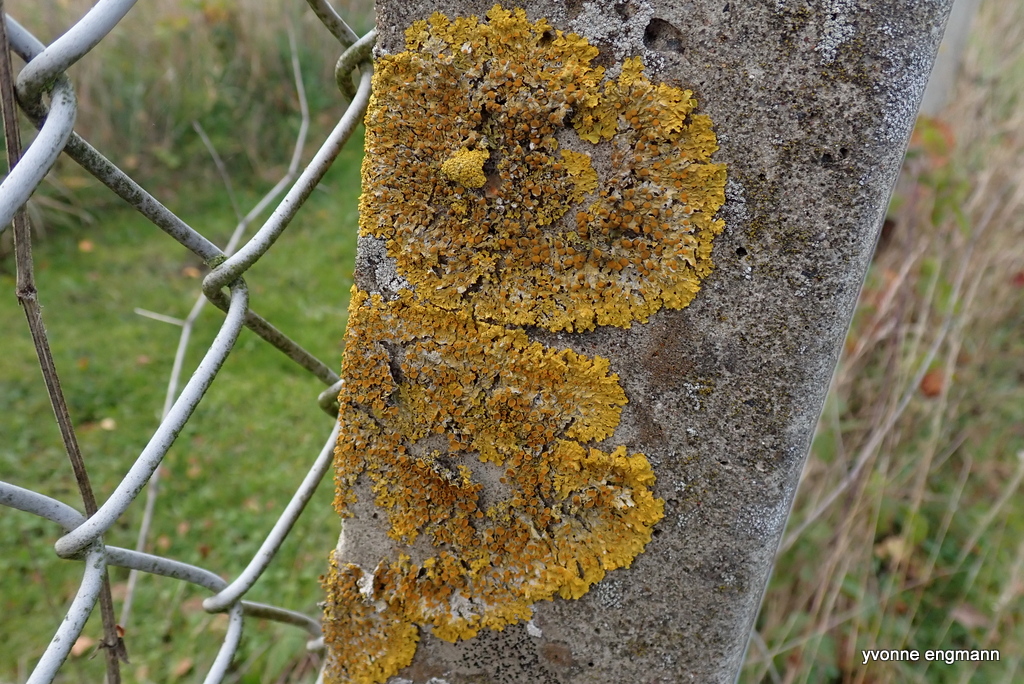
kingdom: Fungi
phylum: Ascomycota
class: Lecanoromycetes
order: Teloschistales
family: Teloschistaceae
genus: Xanthoria
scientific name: Xanthoria parietina
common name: almindelig væggelav
